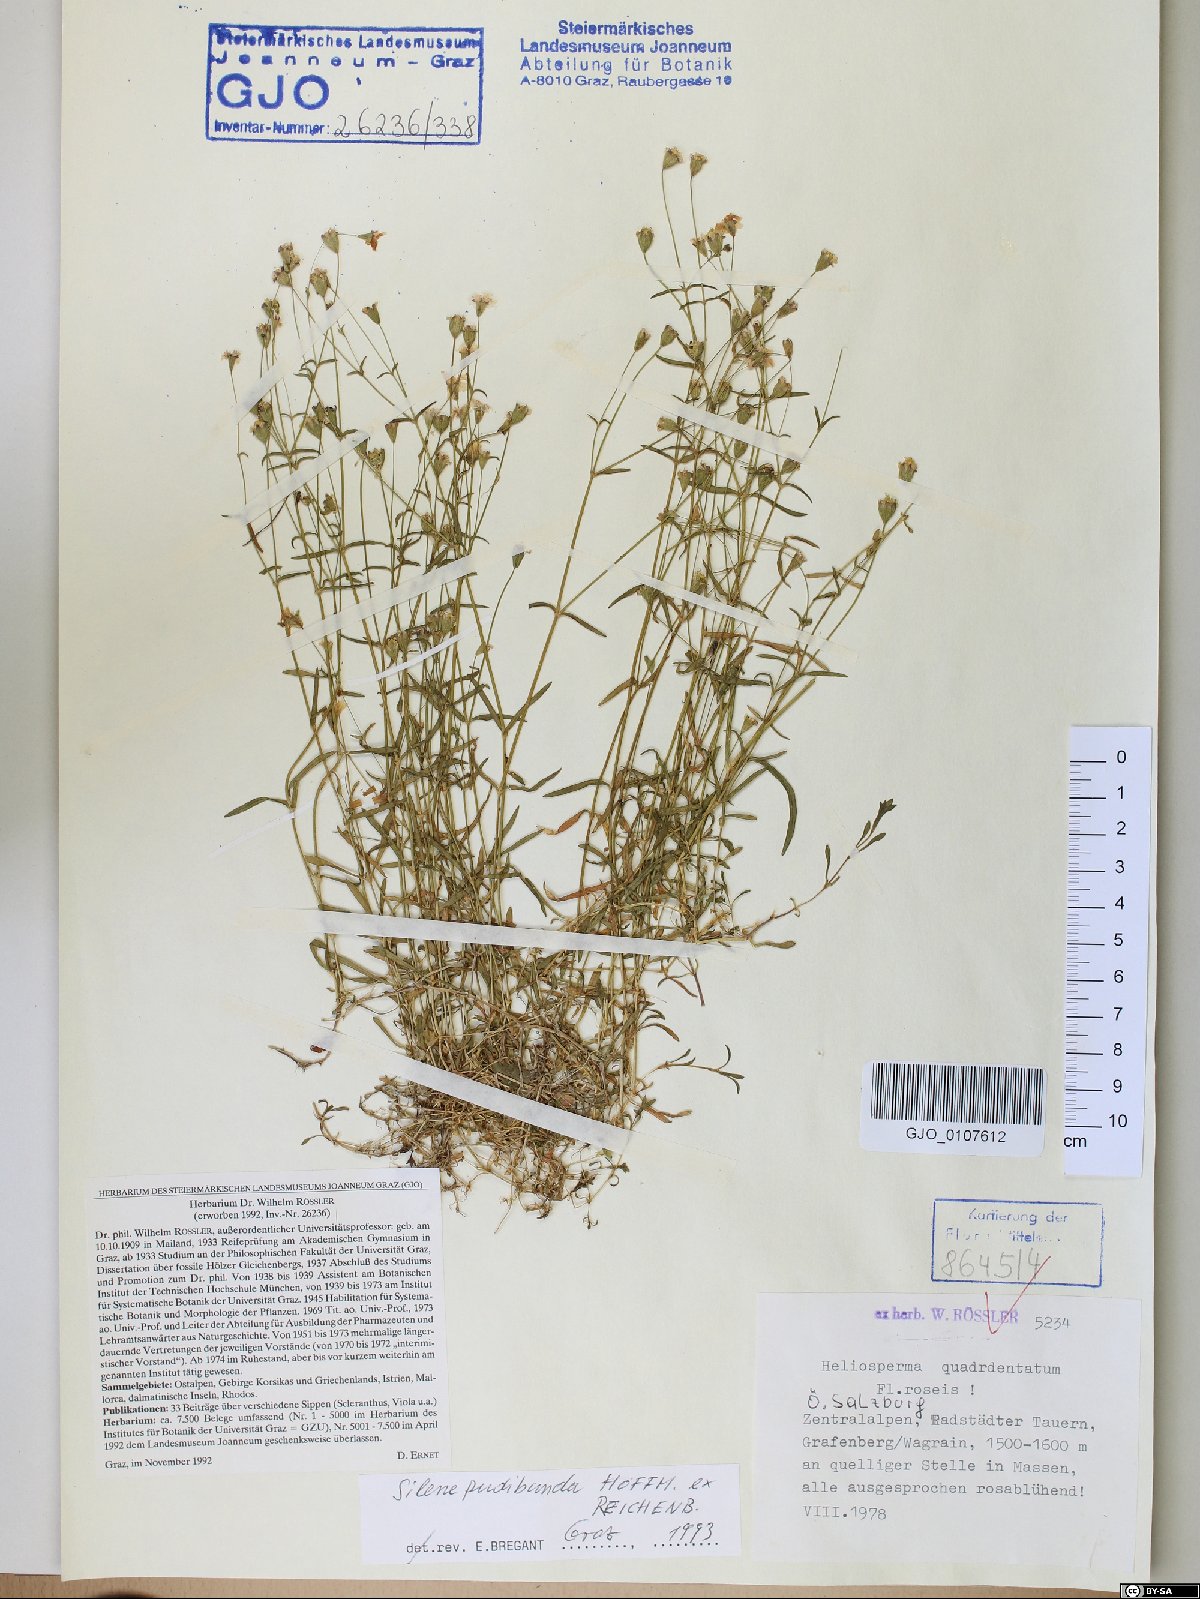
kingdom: Plantae
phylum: Tracheophyta
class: Magnoliopsida
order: Caryophyllales
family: Caryophyllaceae
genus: Heliosperma
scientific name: Heliosperma pudibundum
